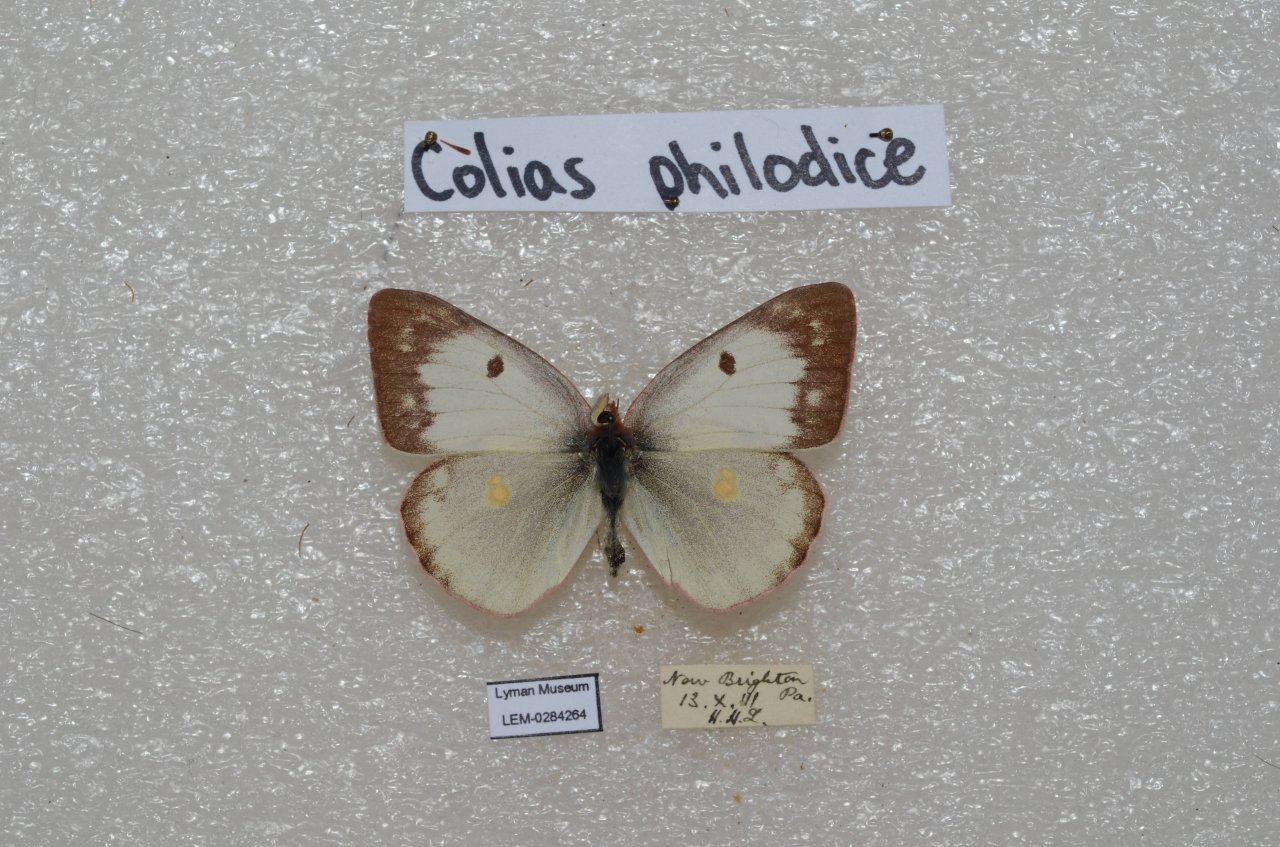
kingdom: Animalia
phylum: Arthropoda
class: Insecta
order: Lepidoptera
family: Pieridae
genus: Colias
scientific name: Colias philodice
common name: Clouded Sulphur
